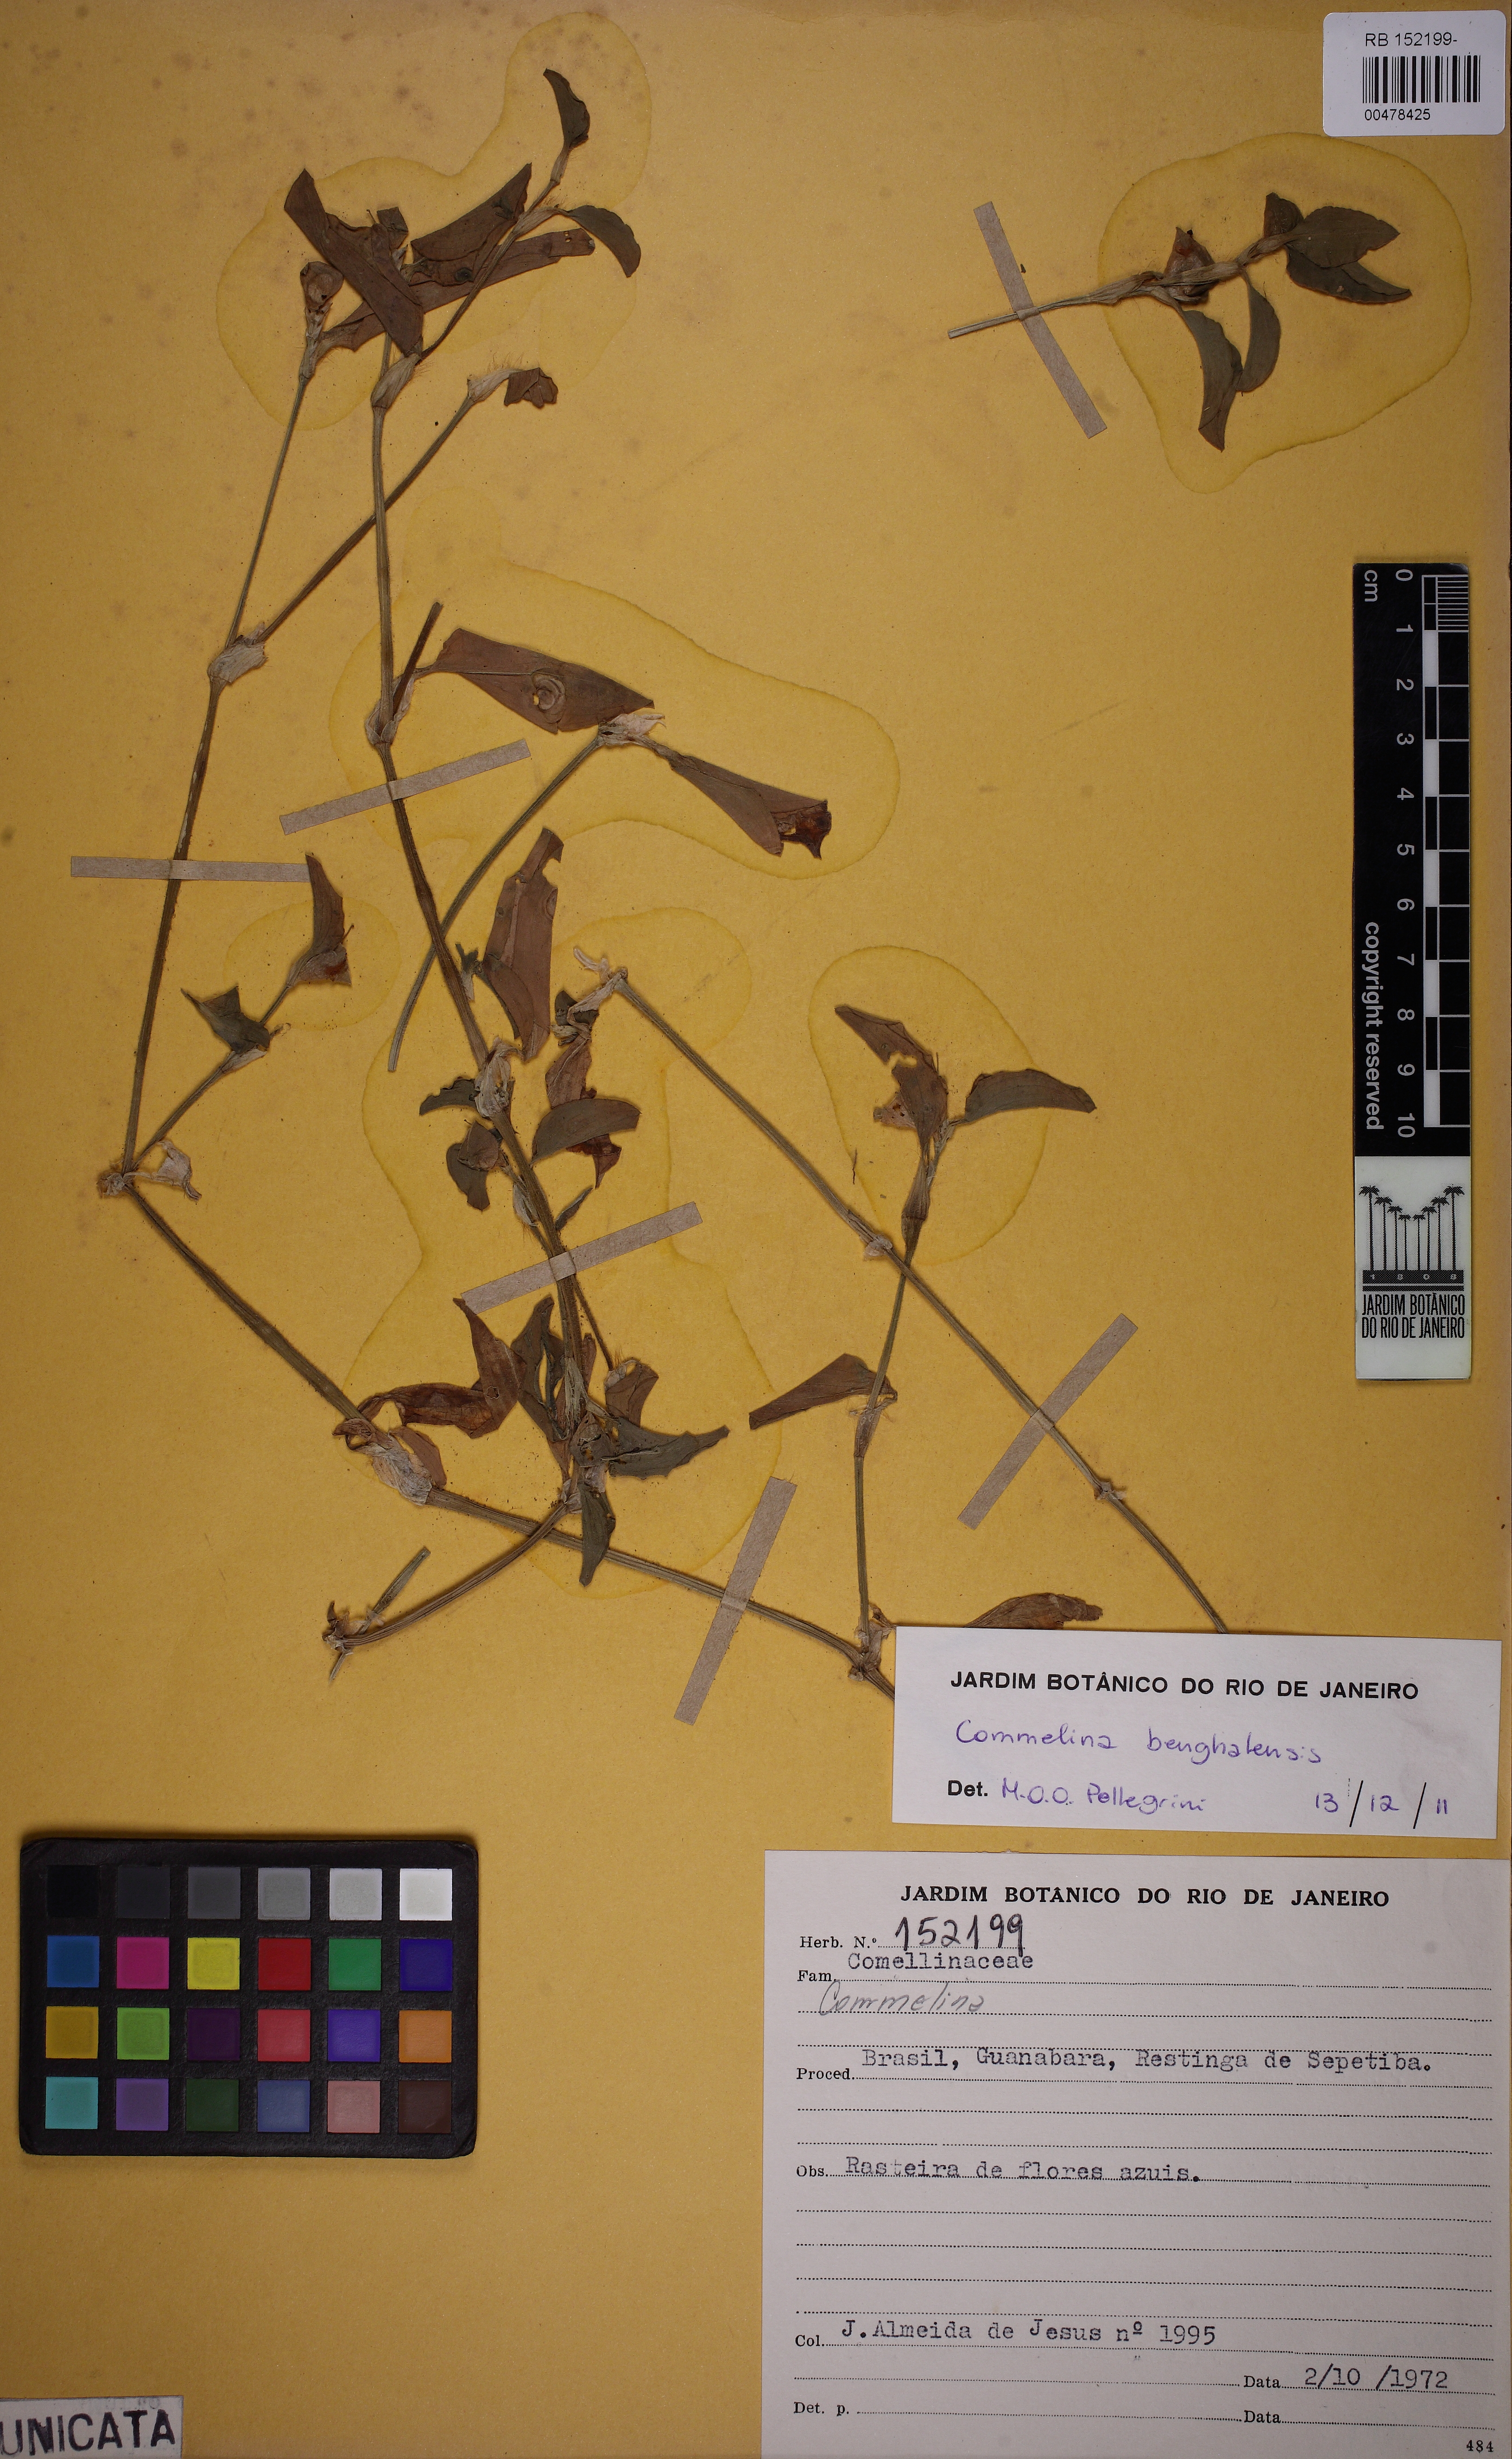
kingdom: Plantae
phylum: Tracheophyta
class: Liliopsida
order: Commelinales
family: Commelinaceae
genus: Commelina
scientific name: Commelina benghalensis
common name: Jio
